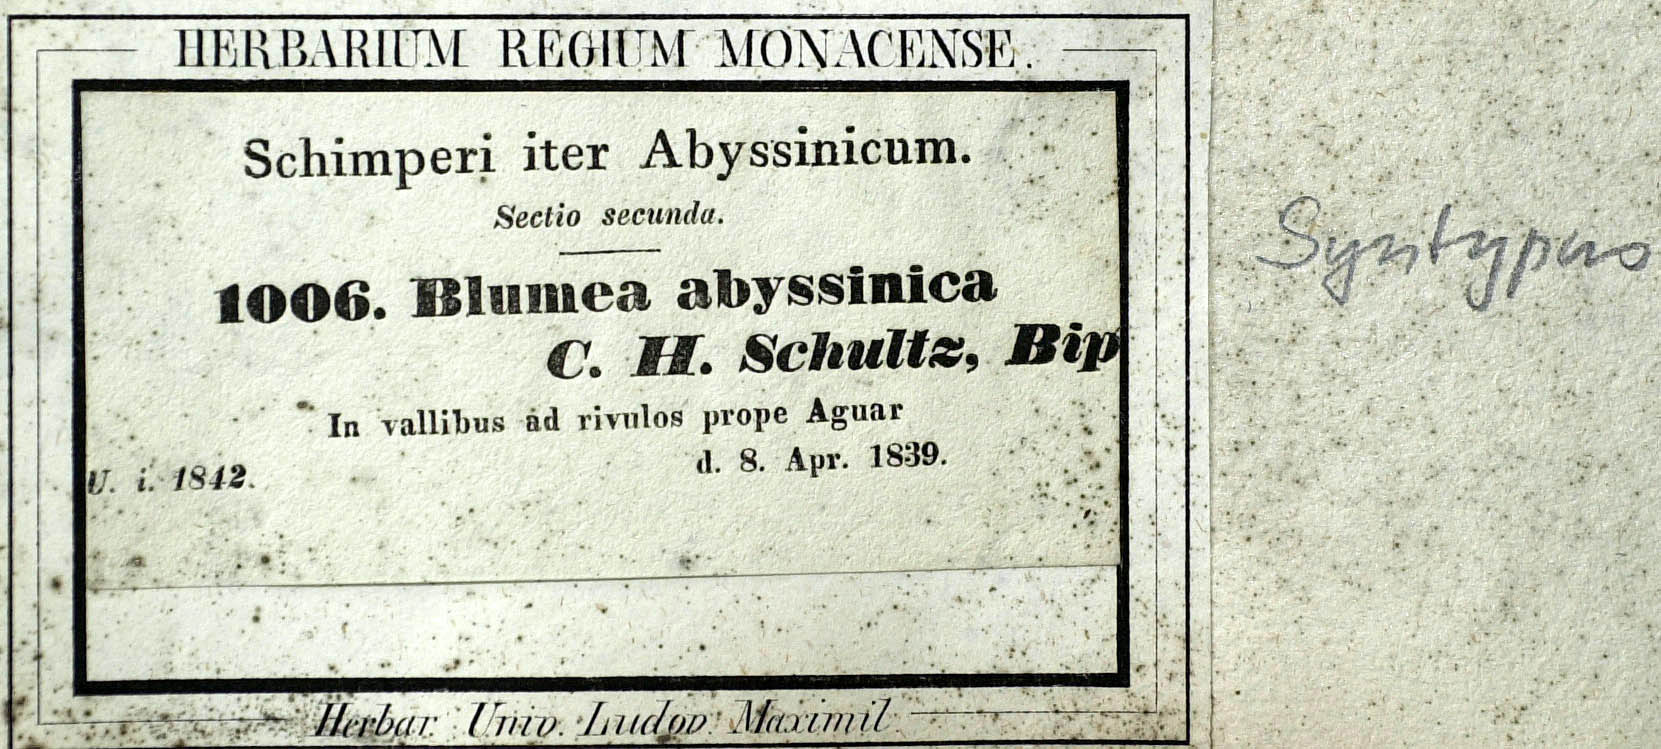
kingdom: Plantae
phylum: Tracheophyta
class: Magnoliopsida
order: Asterales
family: Asteraceae
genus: Doellia
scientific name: Doellia bovei
